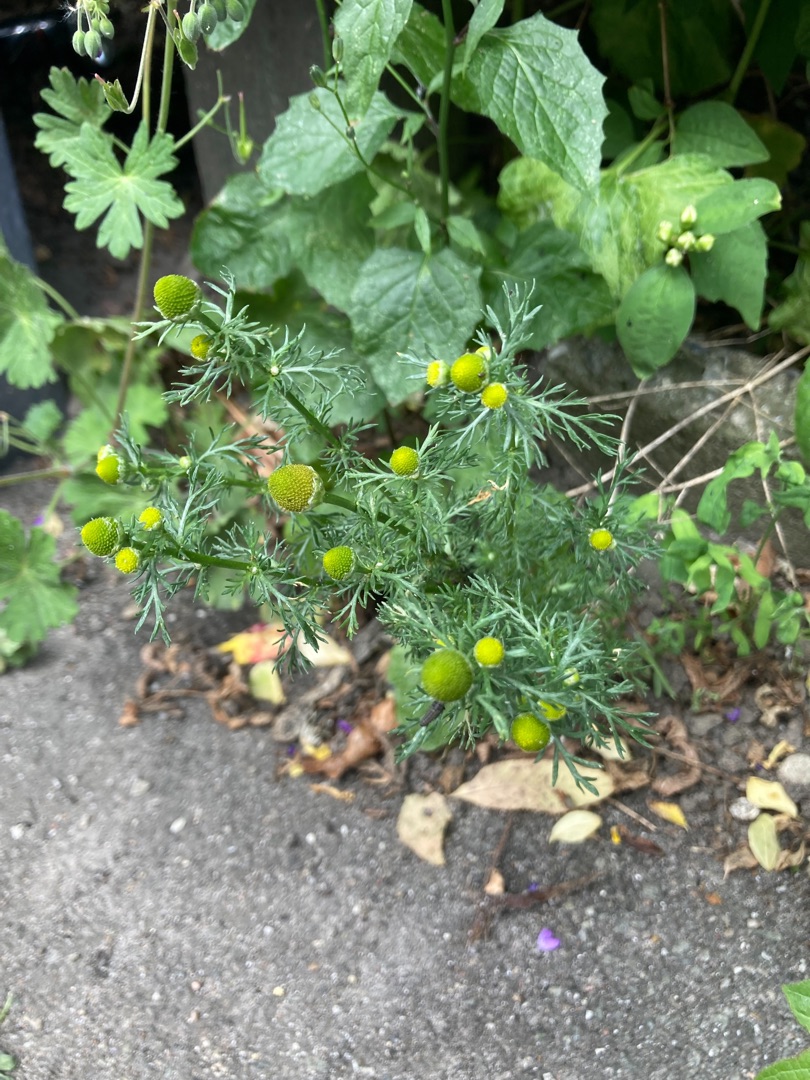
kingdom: Plantae
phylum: Tracheophyta
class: Magnoliopsida
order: Asterales
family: Asteraceae
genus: Matricaria
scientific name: Matricaria discoidea
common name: Skive-kamille
